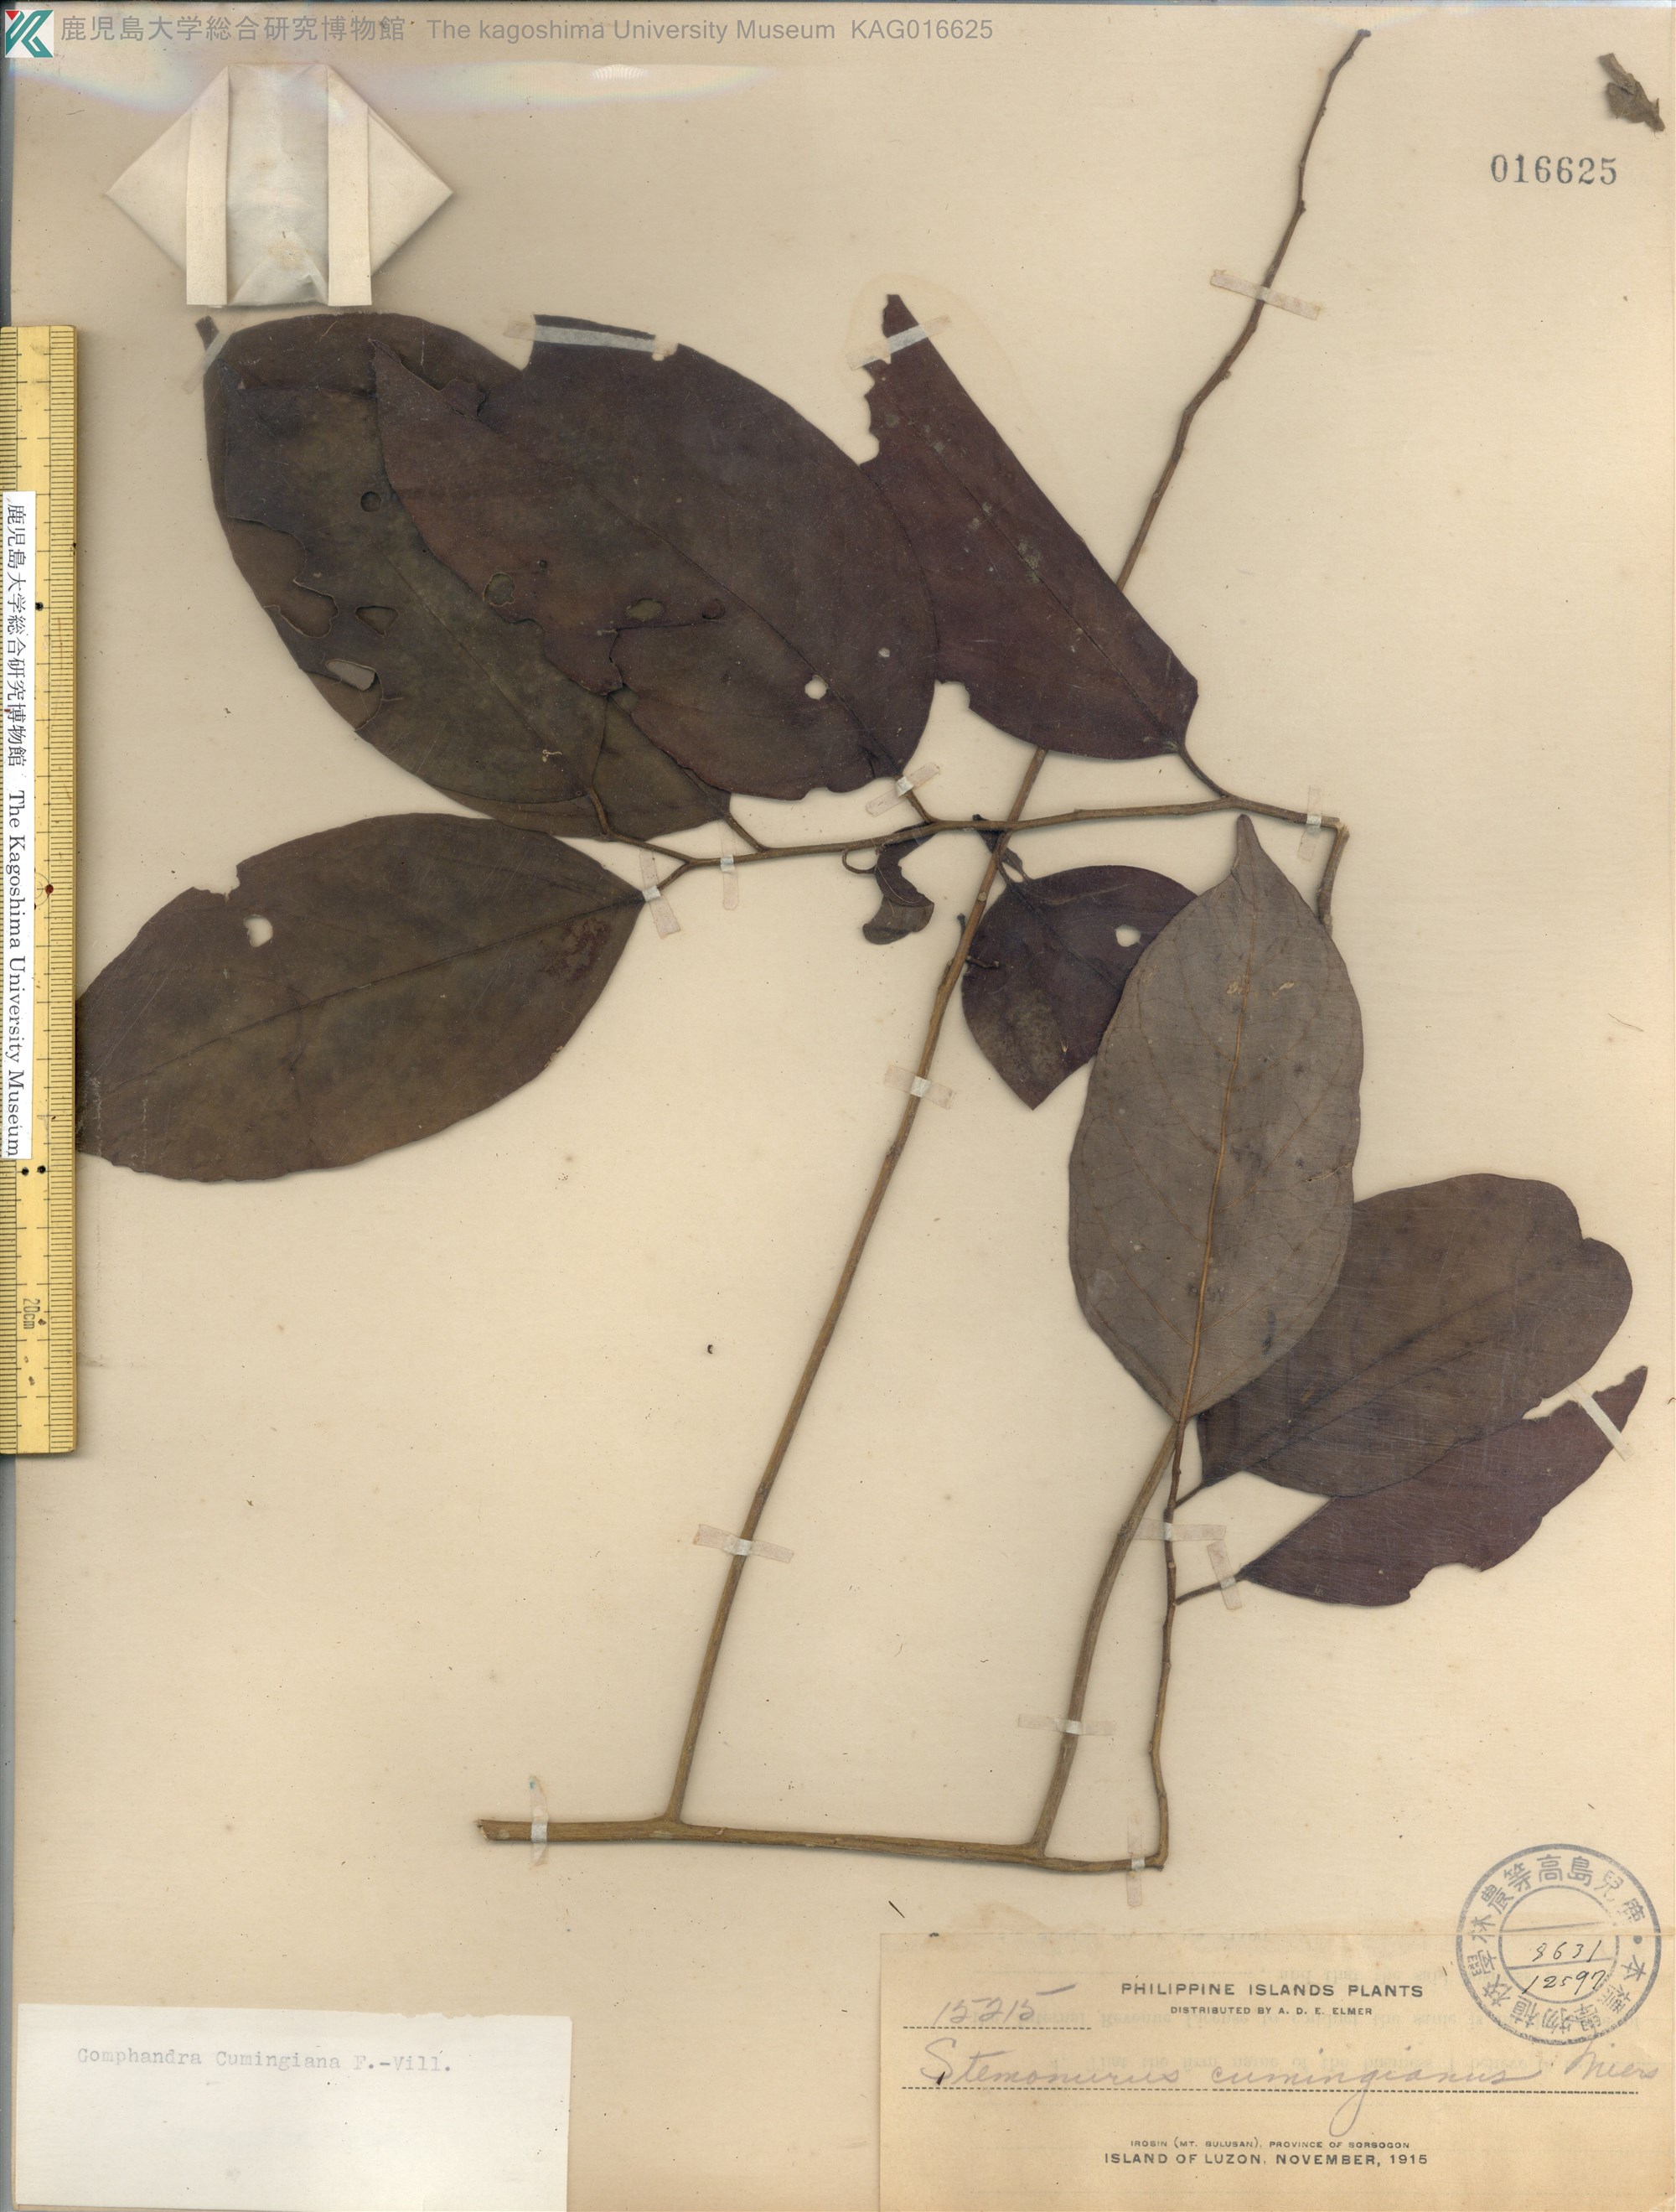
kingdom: Plantae
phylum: Tracheophyta
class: Magnoliopsida
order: Cardiopteridales
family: Stemonuraceae
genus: Gomphandra
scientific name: Gomphandra cumingiana
